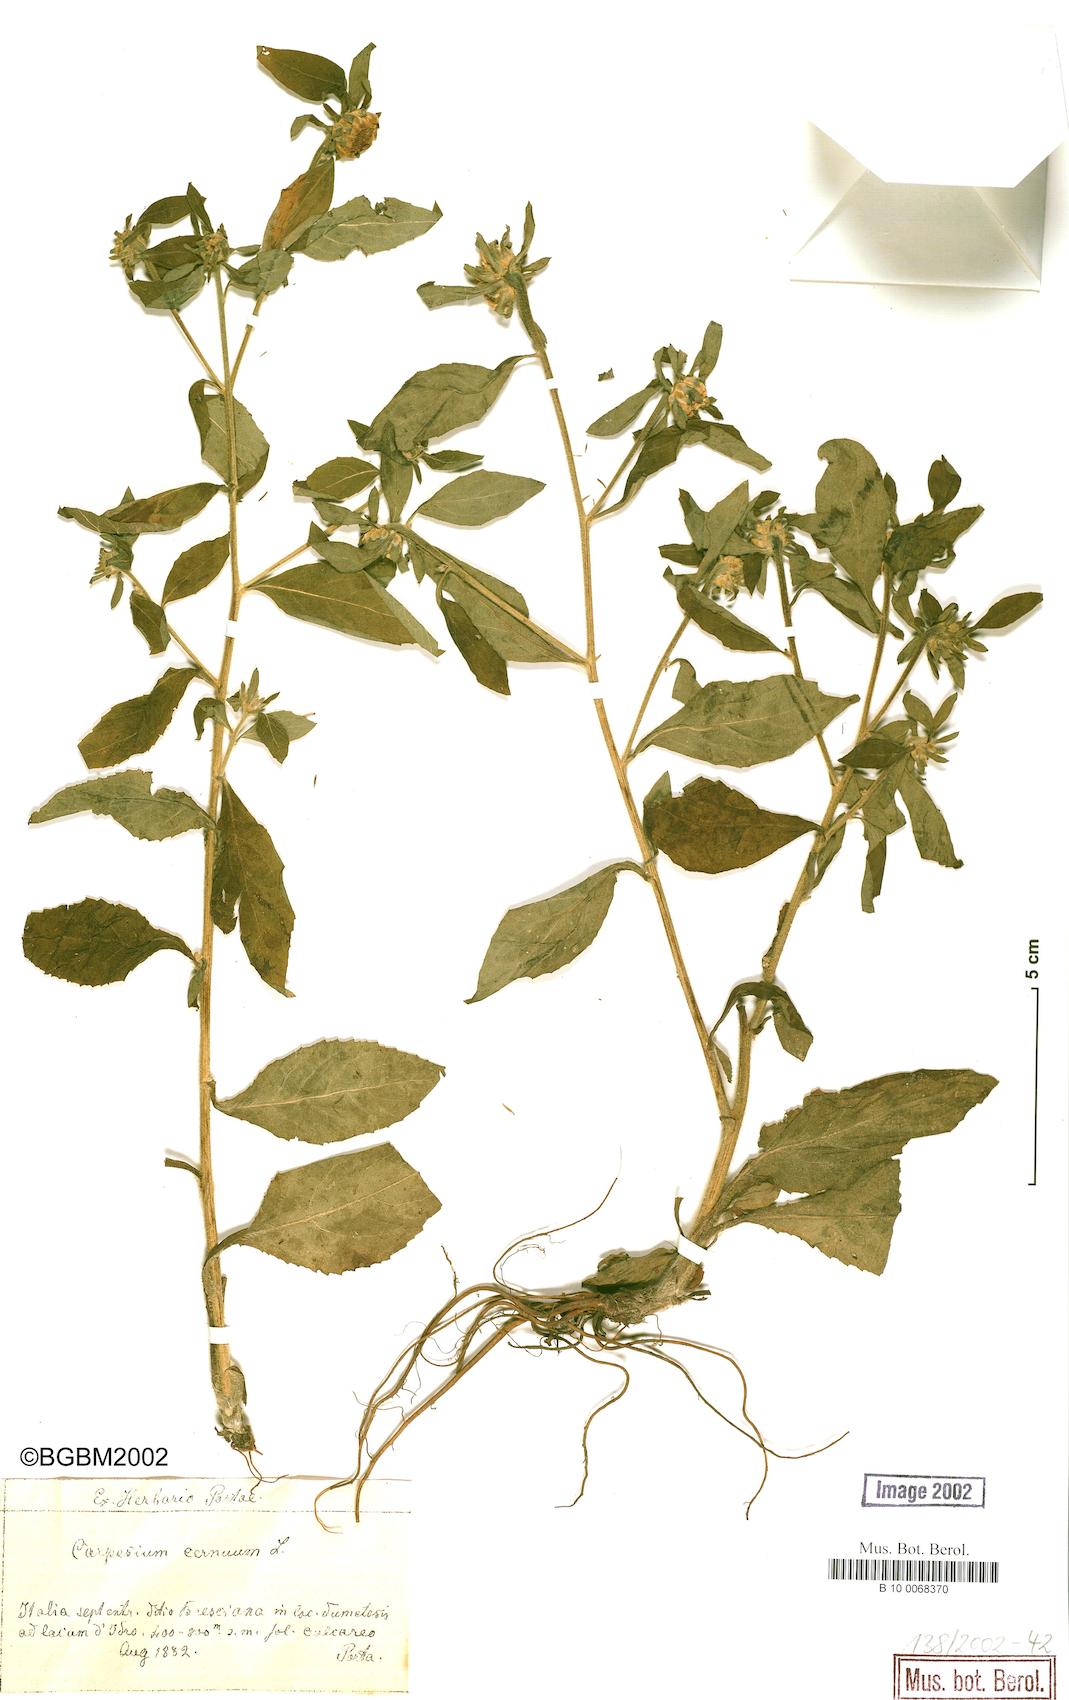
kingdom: Plantae
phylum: Tracheophyta
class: Magnoliopsida
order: Asterales
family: Asteraceae
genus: Carpesium
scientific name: Carpesium cernuum
